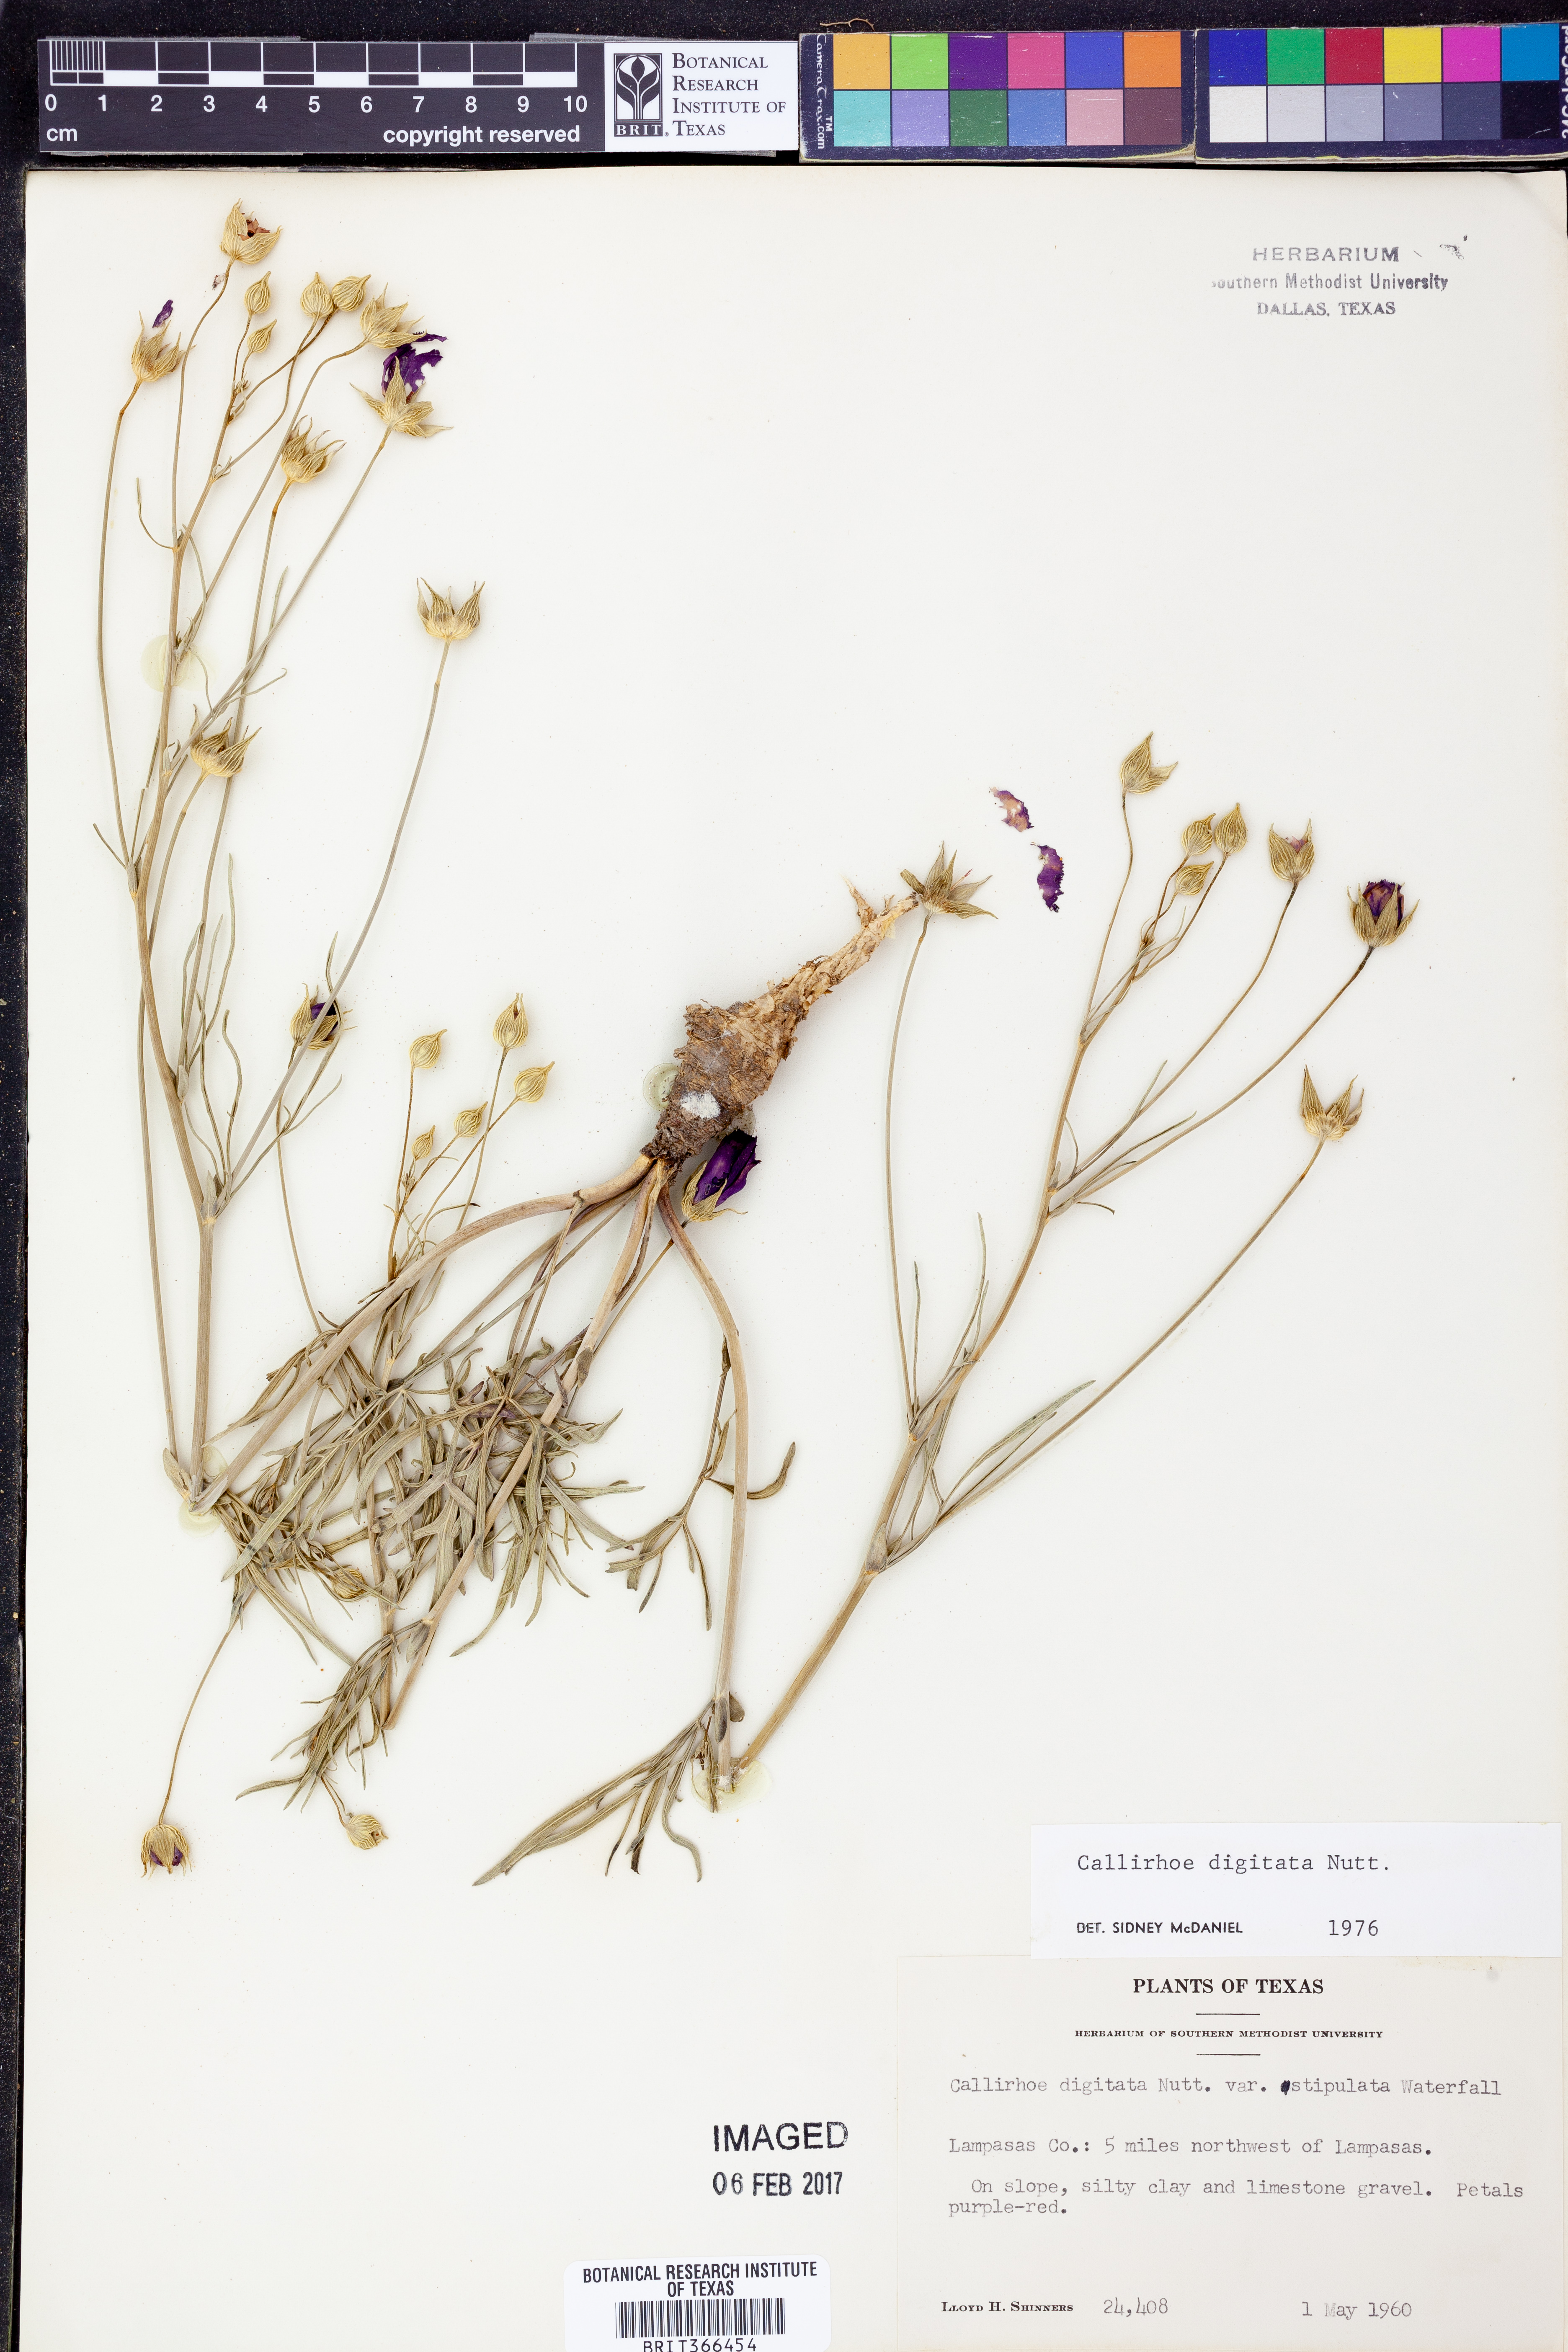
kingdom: Plantae
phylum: Tracheophyta
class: Magnoliopsida
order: Malvales
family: Malvaceae
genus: Callirhoe
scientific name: Callirhoe digitata
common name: Finger poppy-mallow
